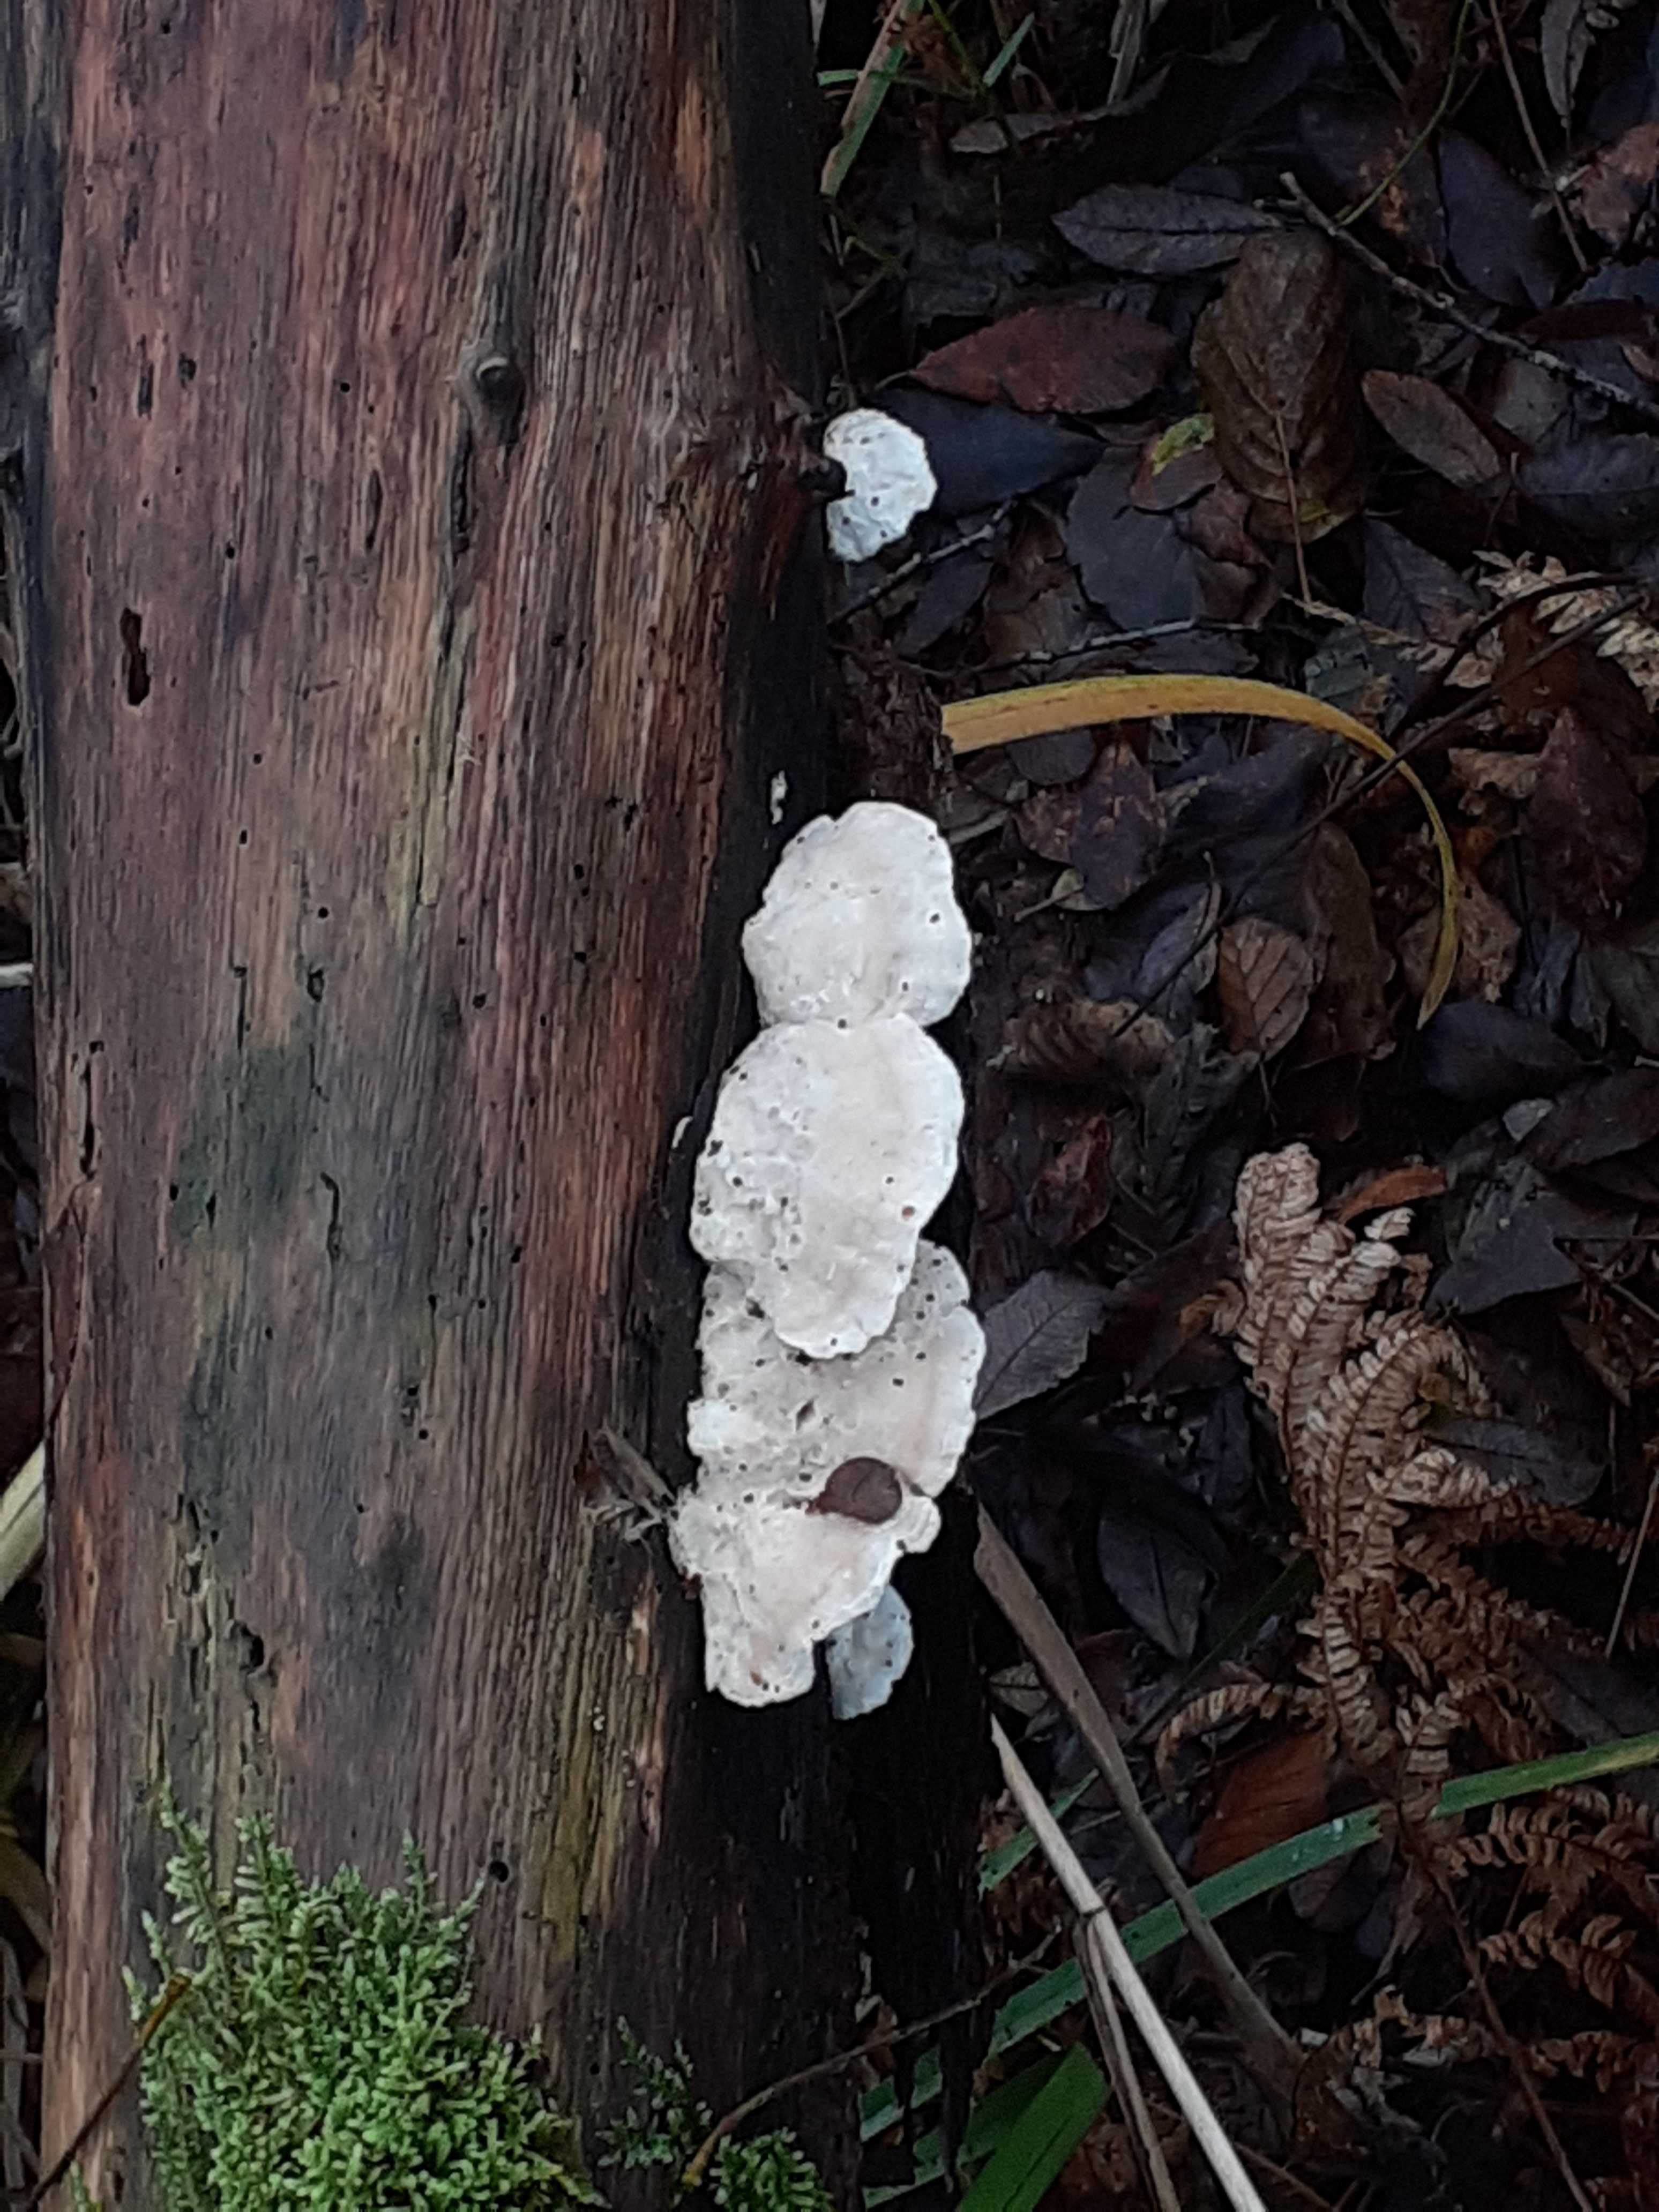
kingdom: Fungi
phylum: Basidiomycota
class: Agaricomycetes
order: Polyporales
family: Incrustoporiaceae
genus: Tyromyces
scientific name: Tyromyces lacteus
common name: mælkehvid kødporesvamp
